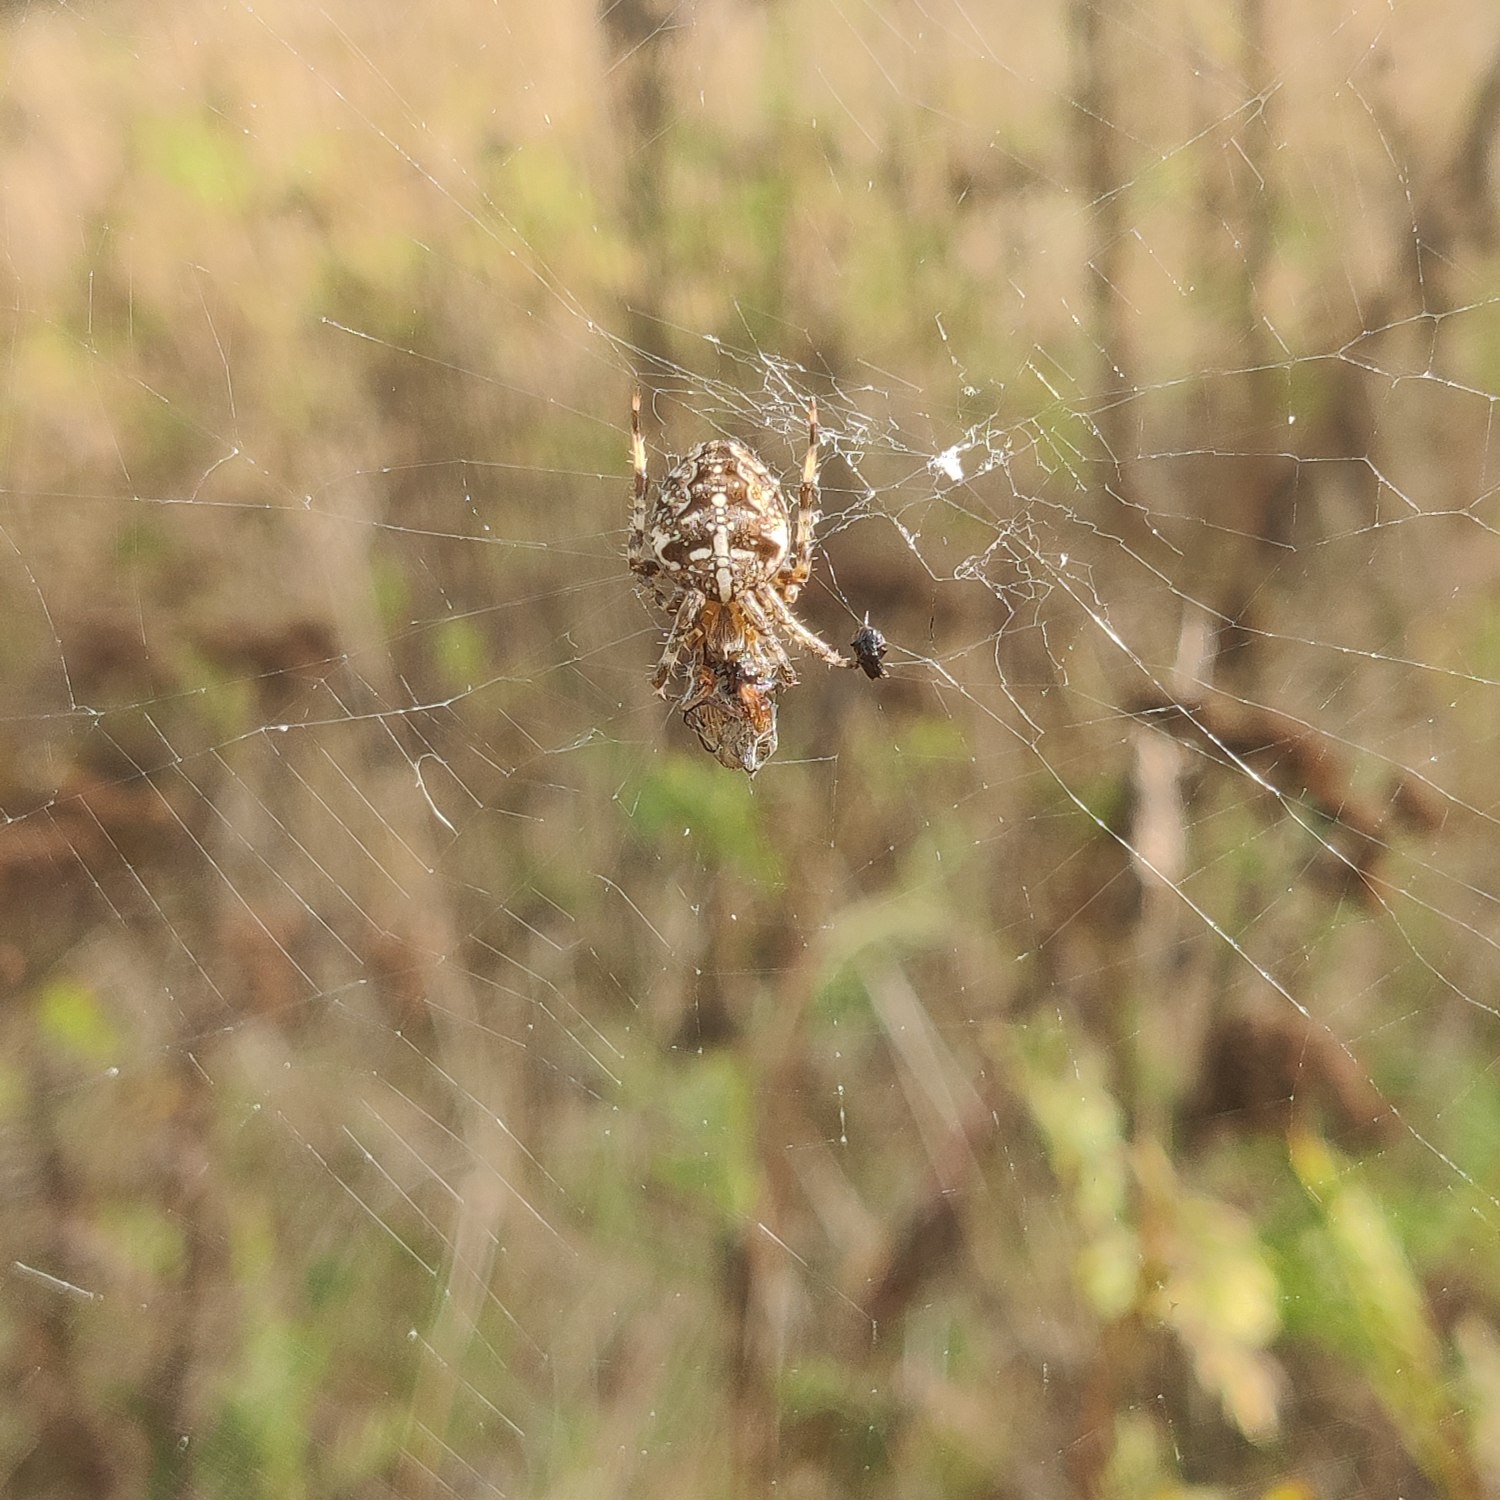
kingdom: Animalia
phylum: Arthropoda
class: Arachnida
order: Araneae
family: Araneidae
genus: Araneus
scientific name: Araneus diadematus
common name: Korsedderkop
